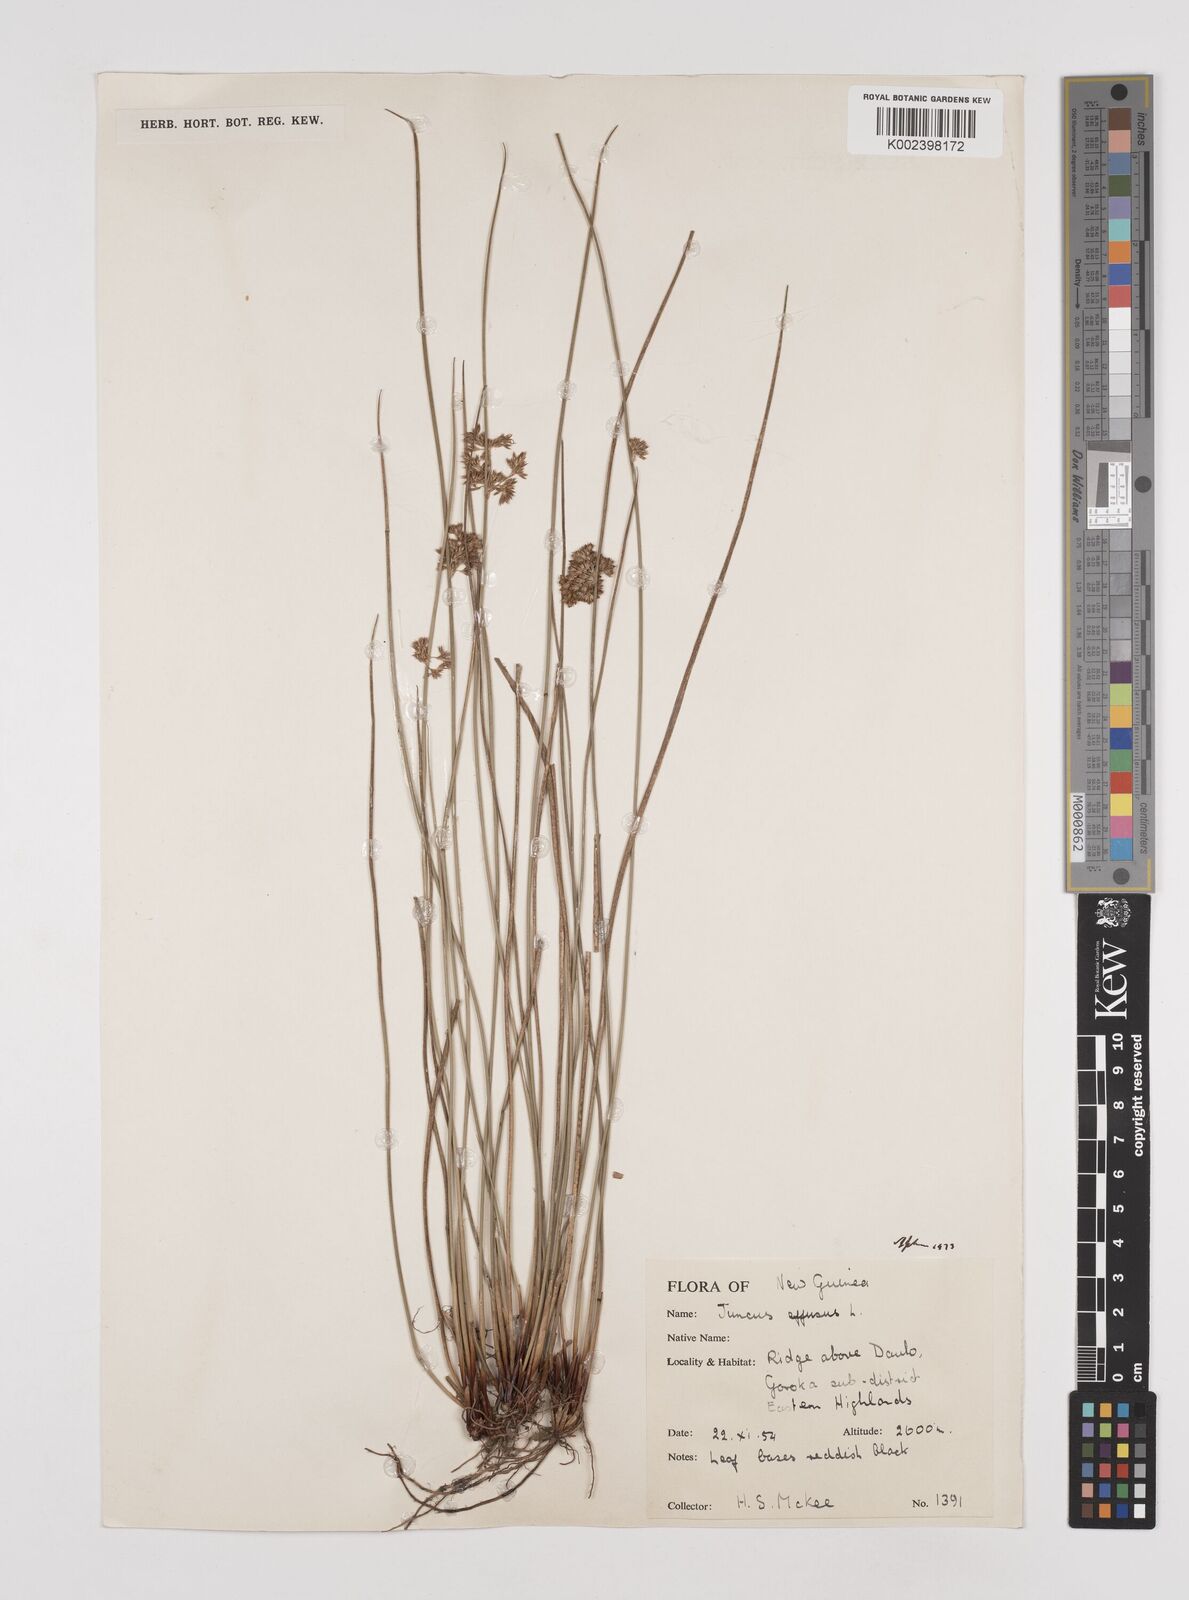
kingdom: Plantae
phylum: Tracheophyta
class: Liliopsida
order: Poales
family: Juncaceae
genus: Juncus
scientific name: Juncus effusus
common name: Soft rush
